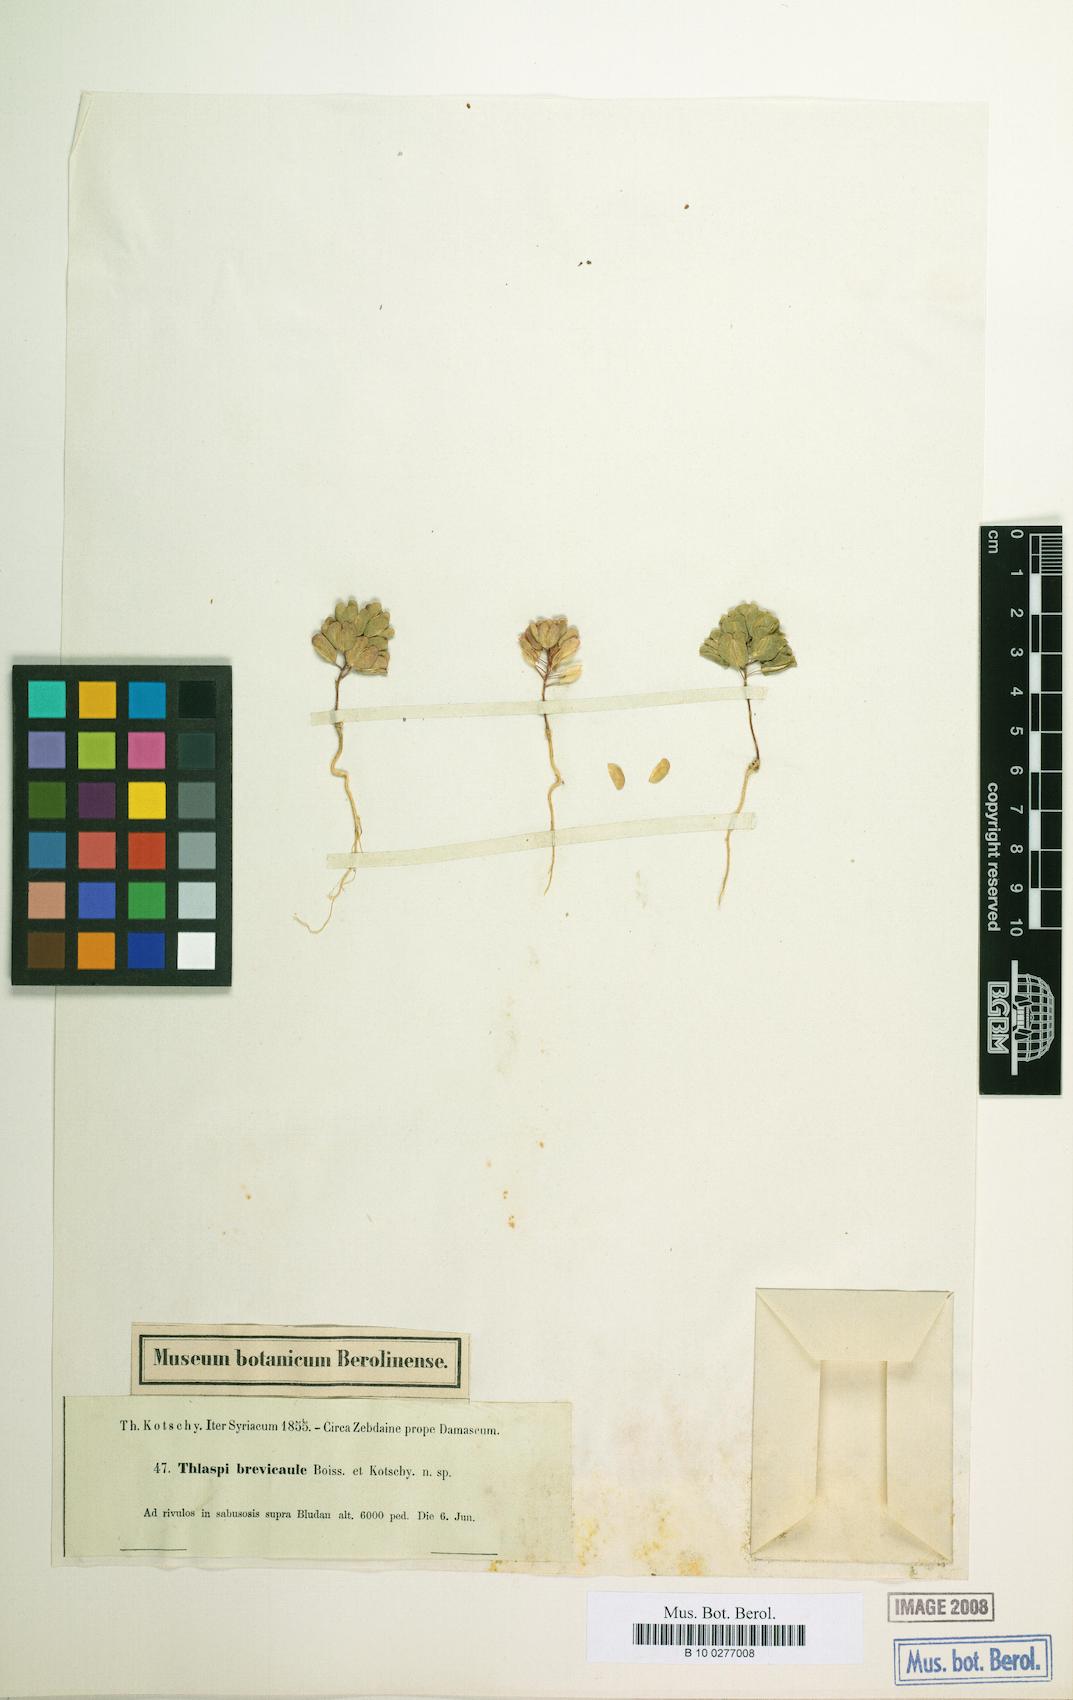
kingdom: Plantae
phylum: Tracheophyta
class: Magnoliopsida
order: Brassicales
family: Brassicaceae
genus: Noccaea
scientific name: Noccaea platycarpa
